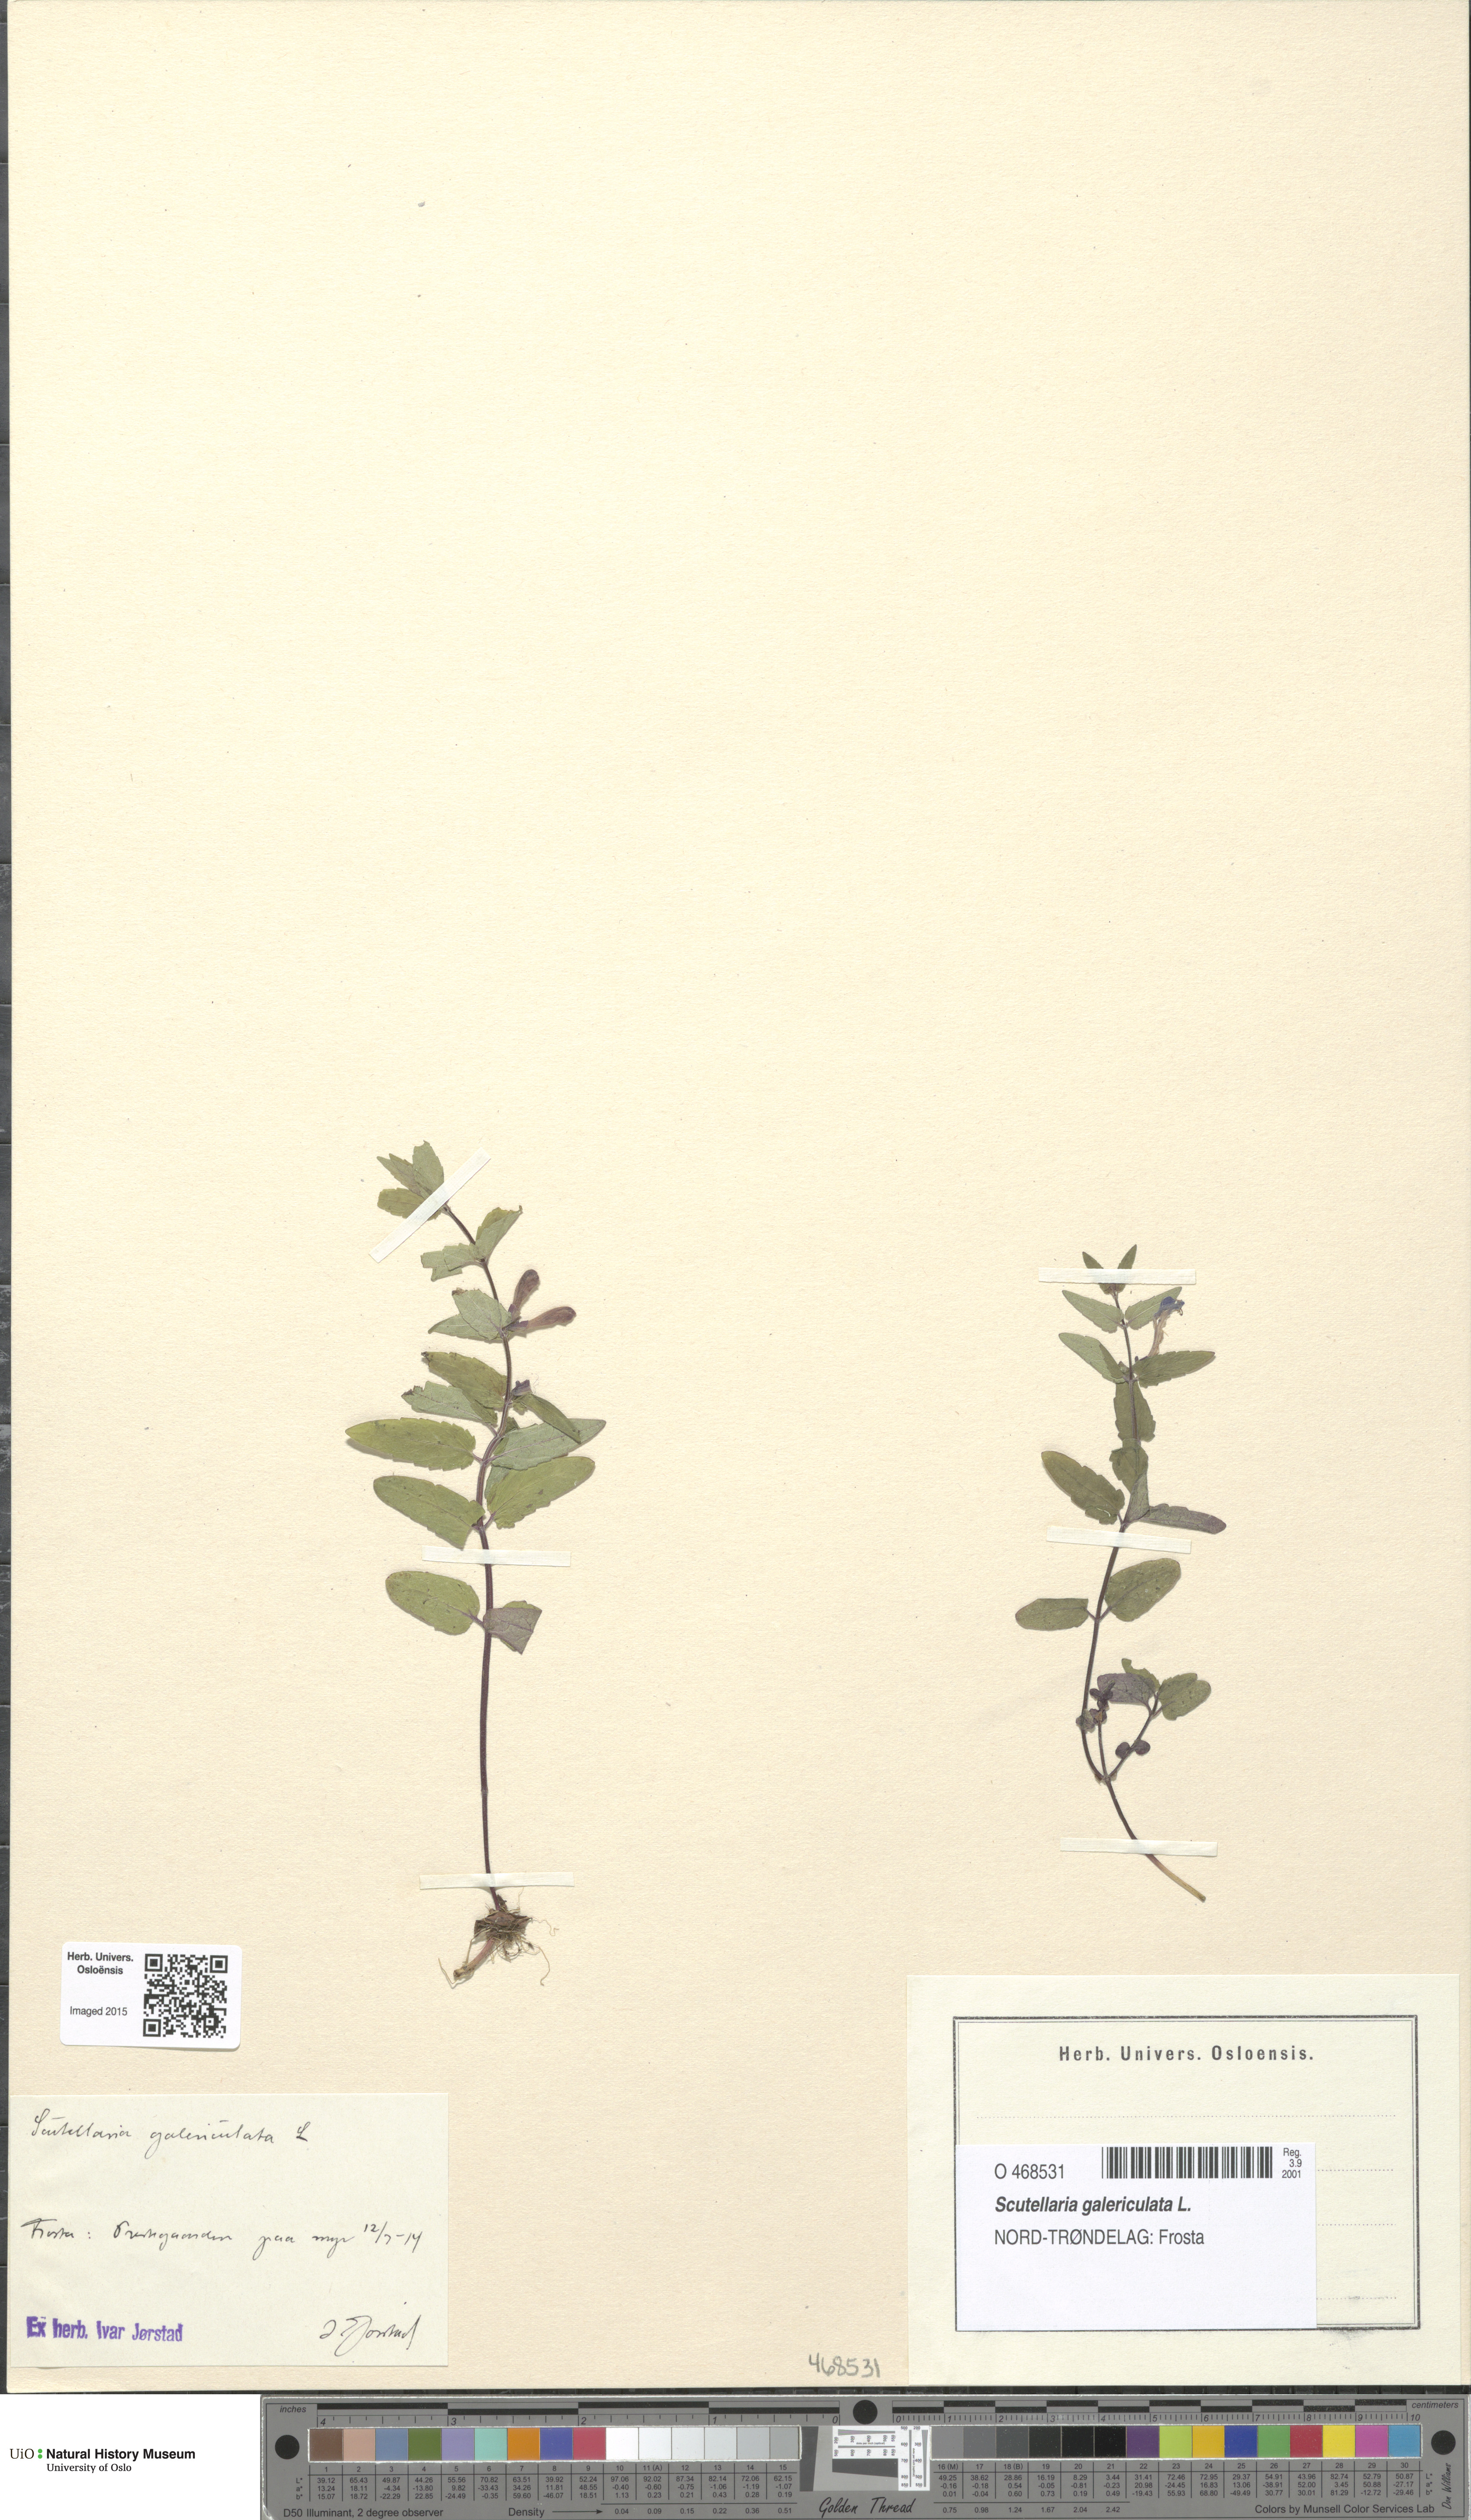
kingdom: Plantae
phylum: Tracheophyta
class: Magnoliopsida
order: Lamiales
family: Lamiaceae
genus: Scutellaria
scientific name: Scutellaria galericulata
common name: Skullcap
